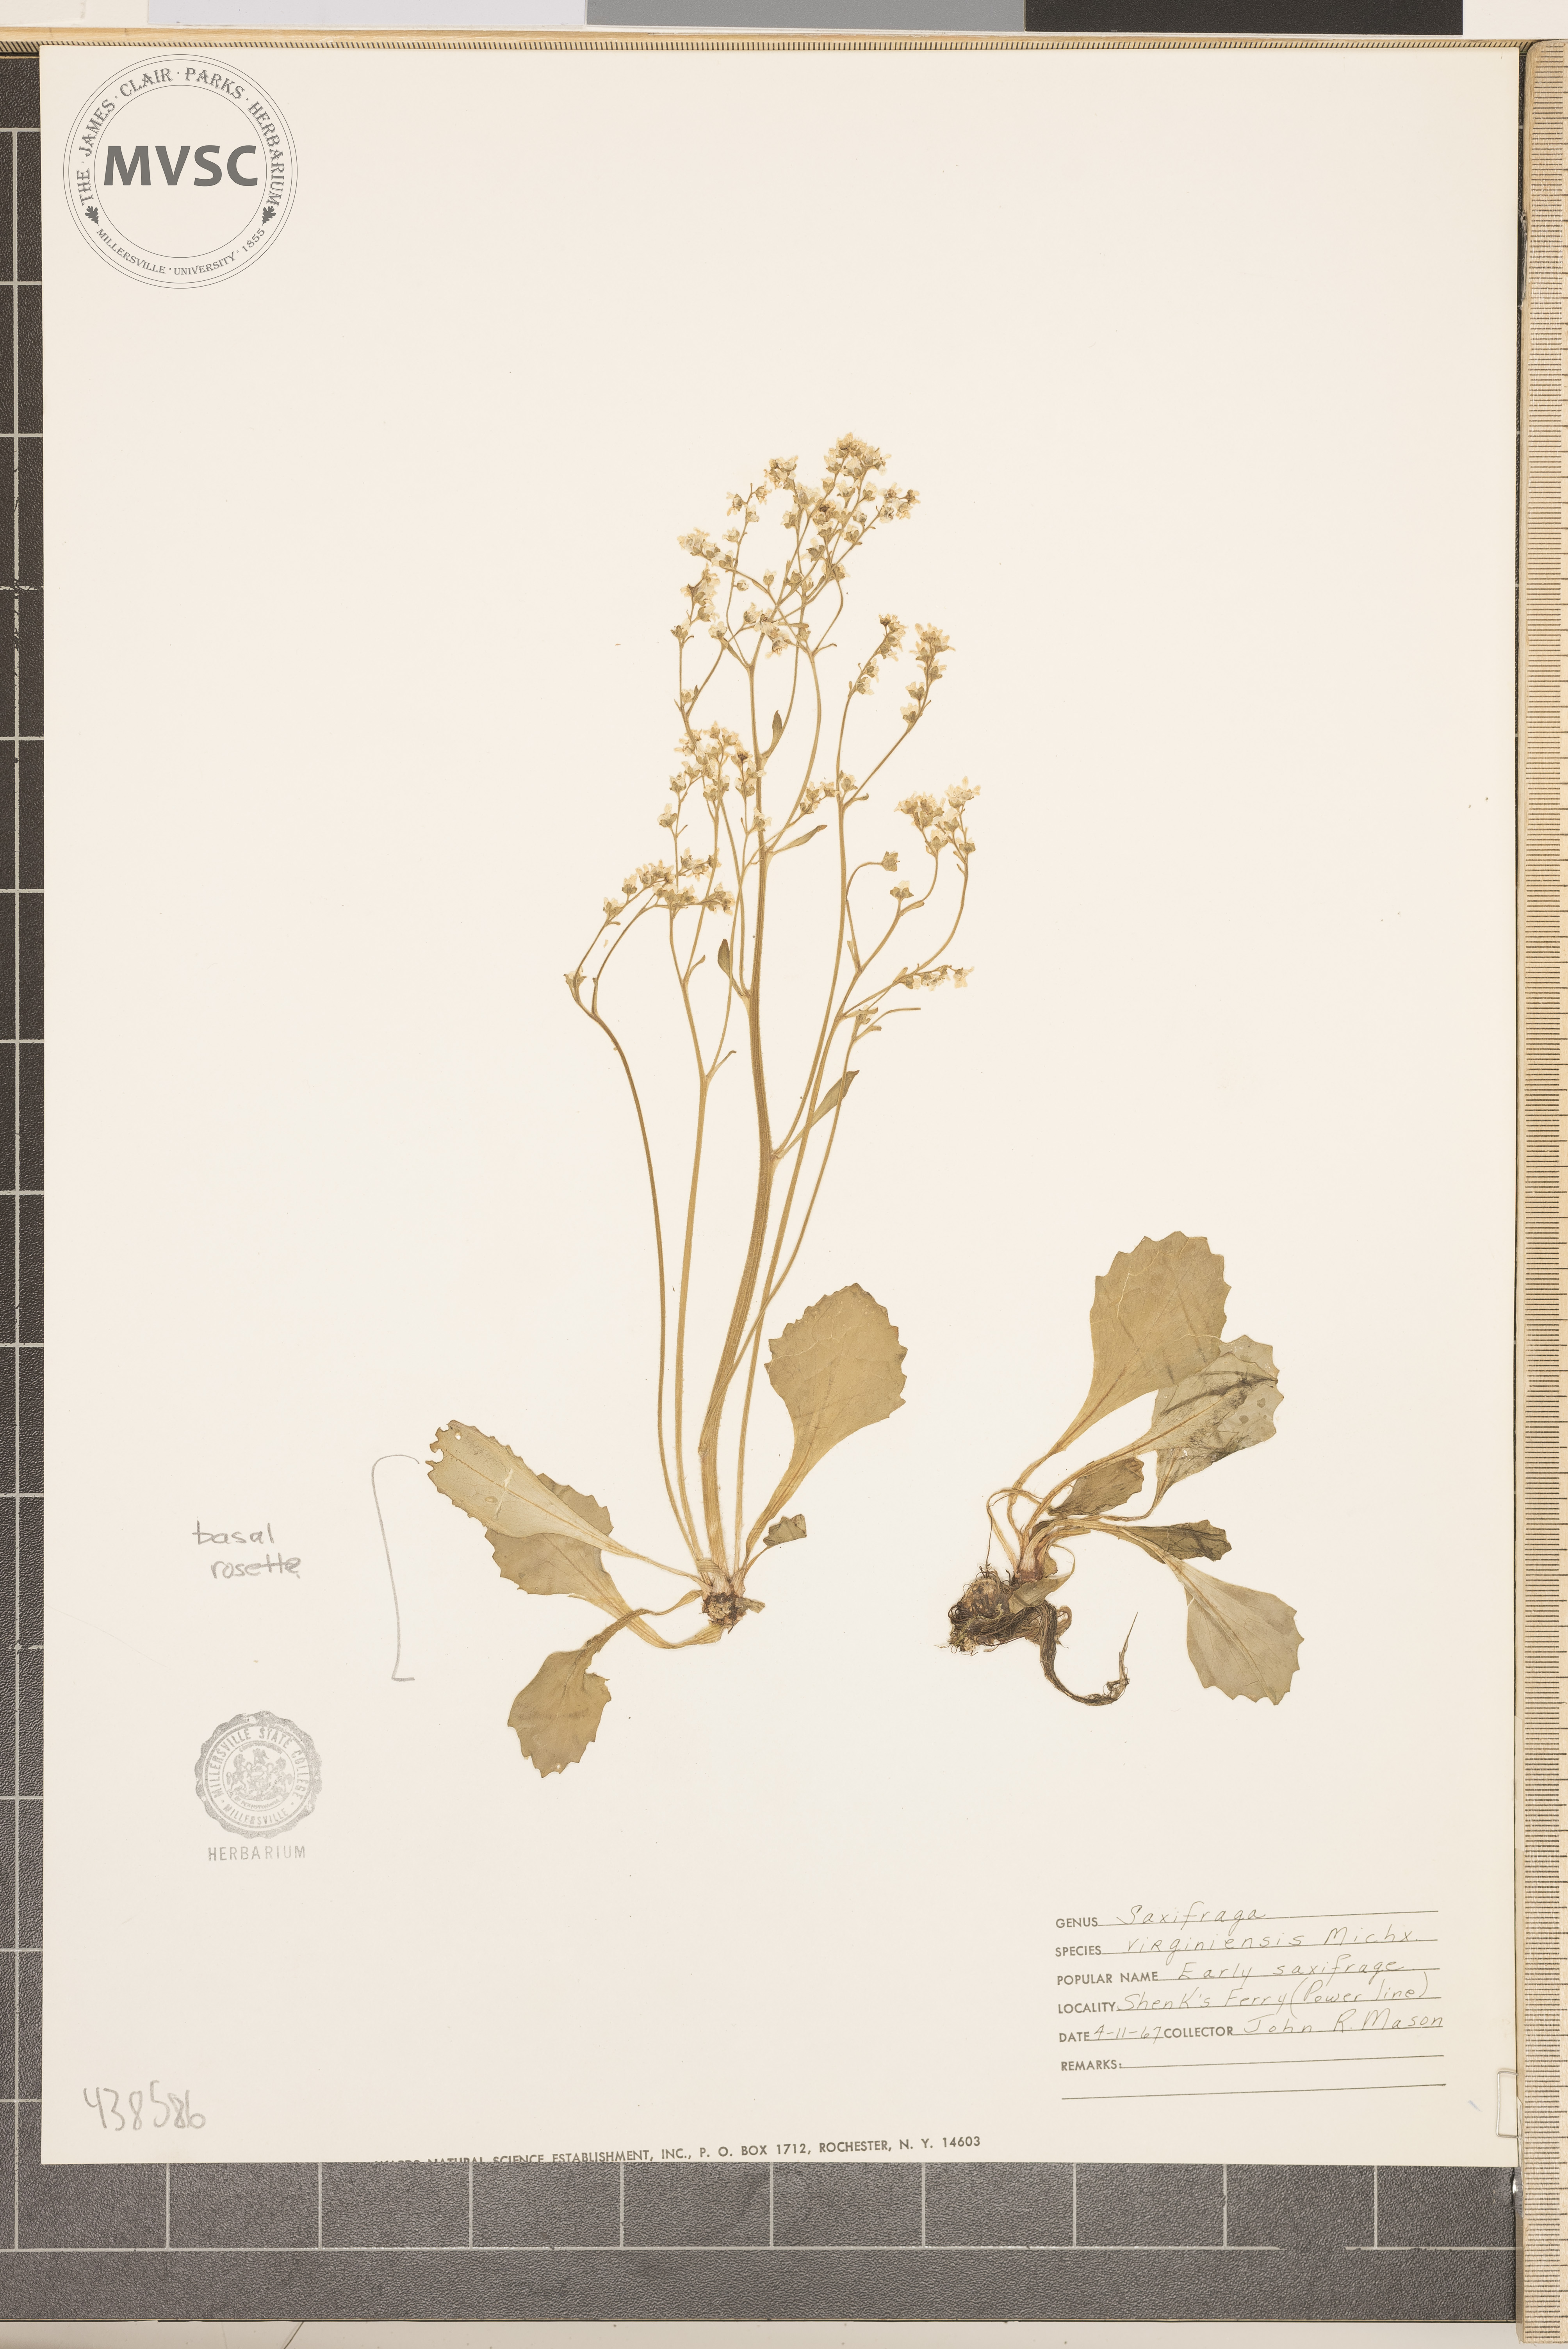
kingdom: Plantae
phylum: Tracheophyta
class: Magnoliopsida
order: Saxifragales
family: Saxifragaceae
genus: Micranthes
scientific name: Micranthes virginiensis
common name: Early saxifrage
